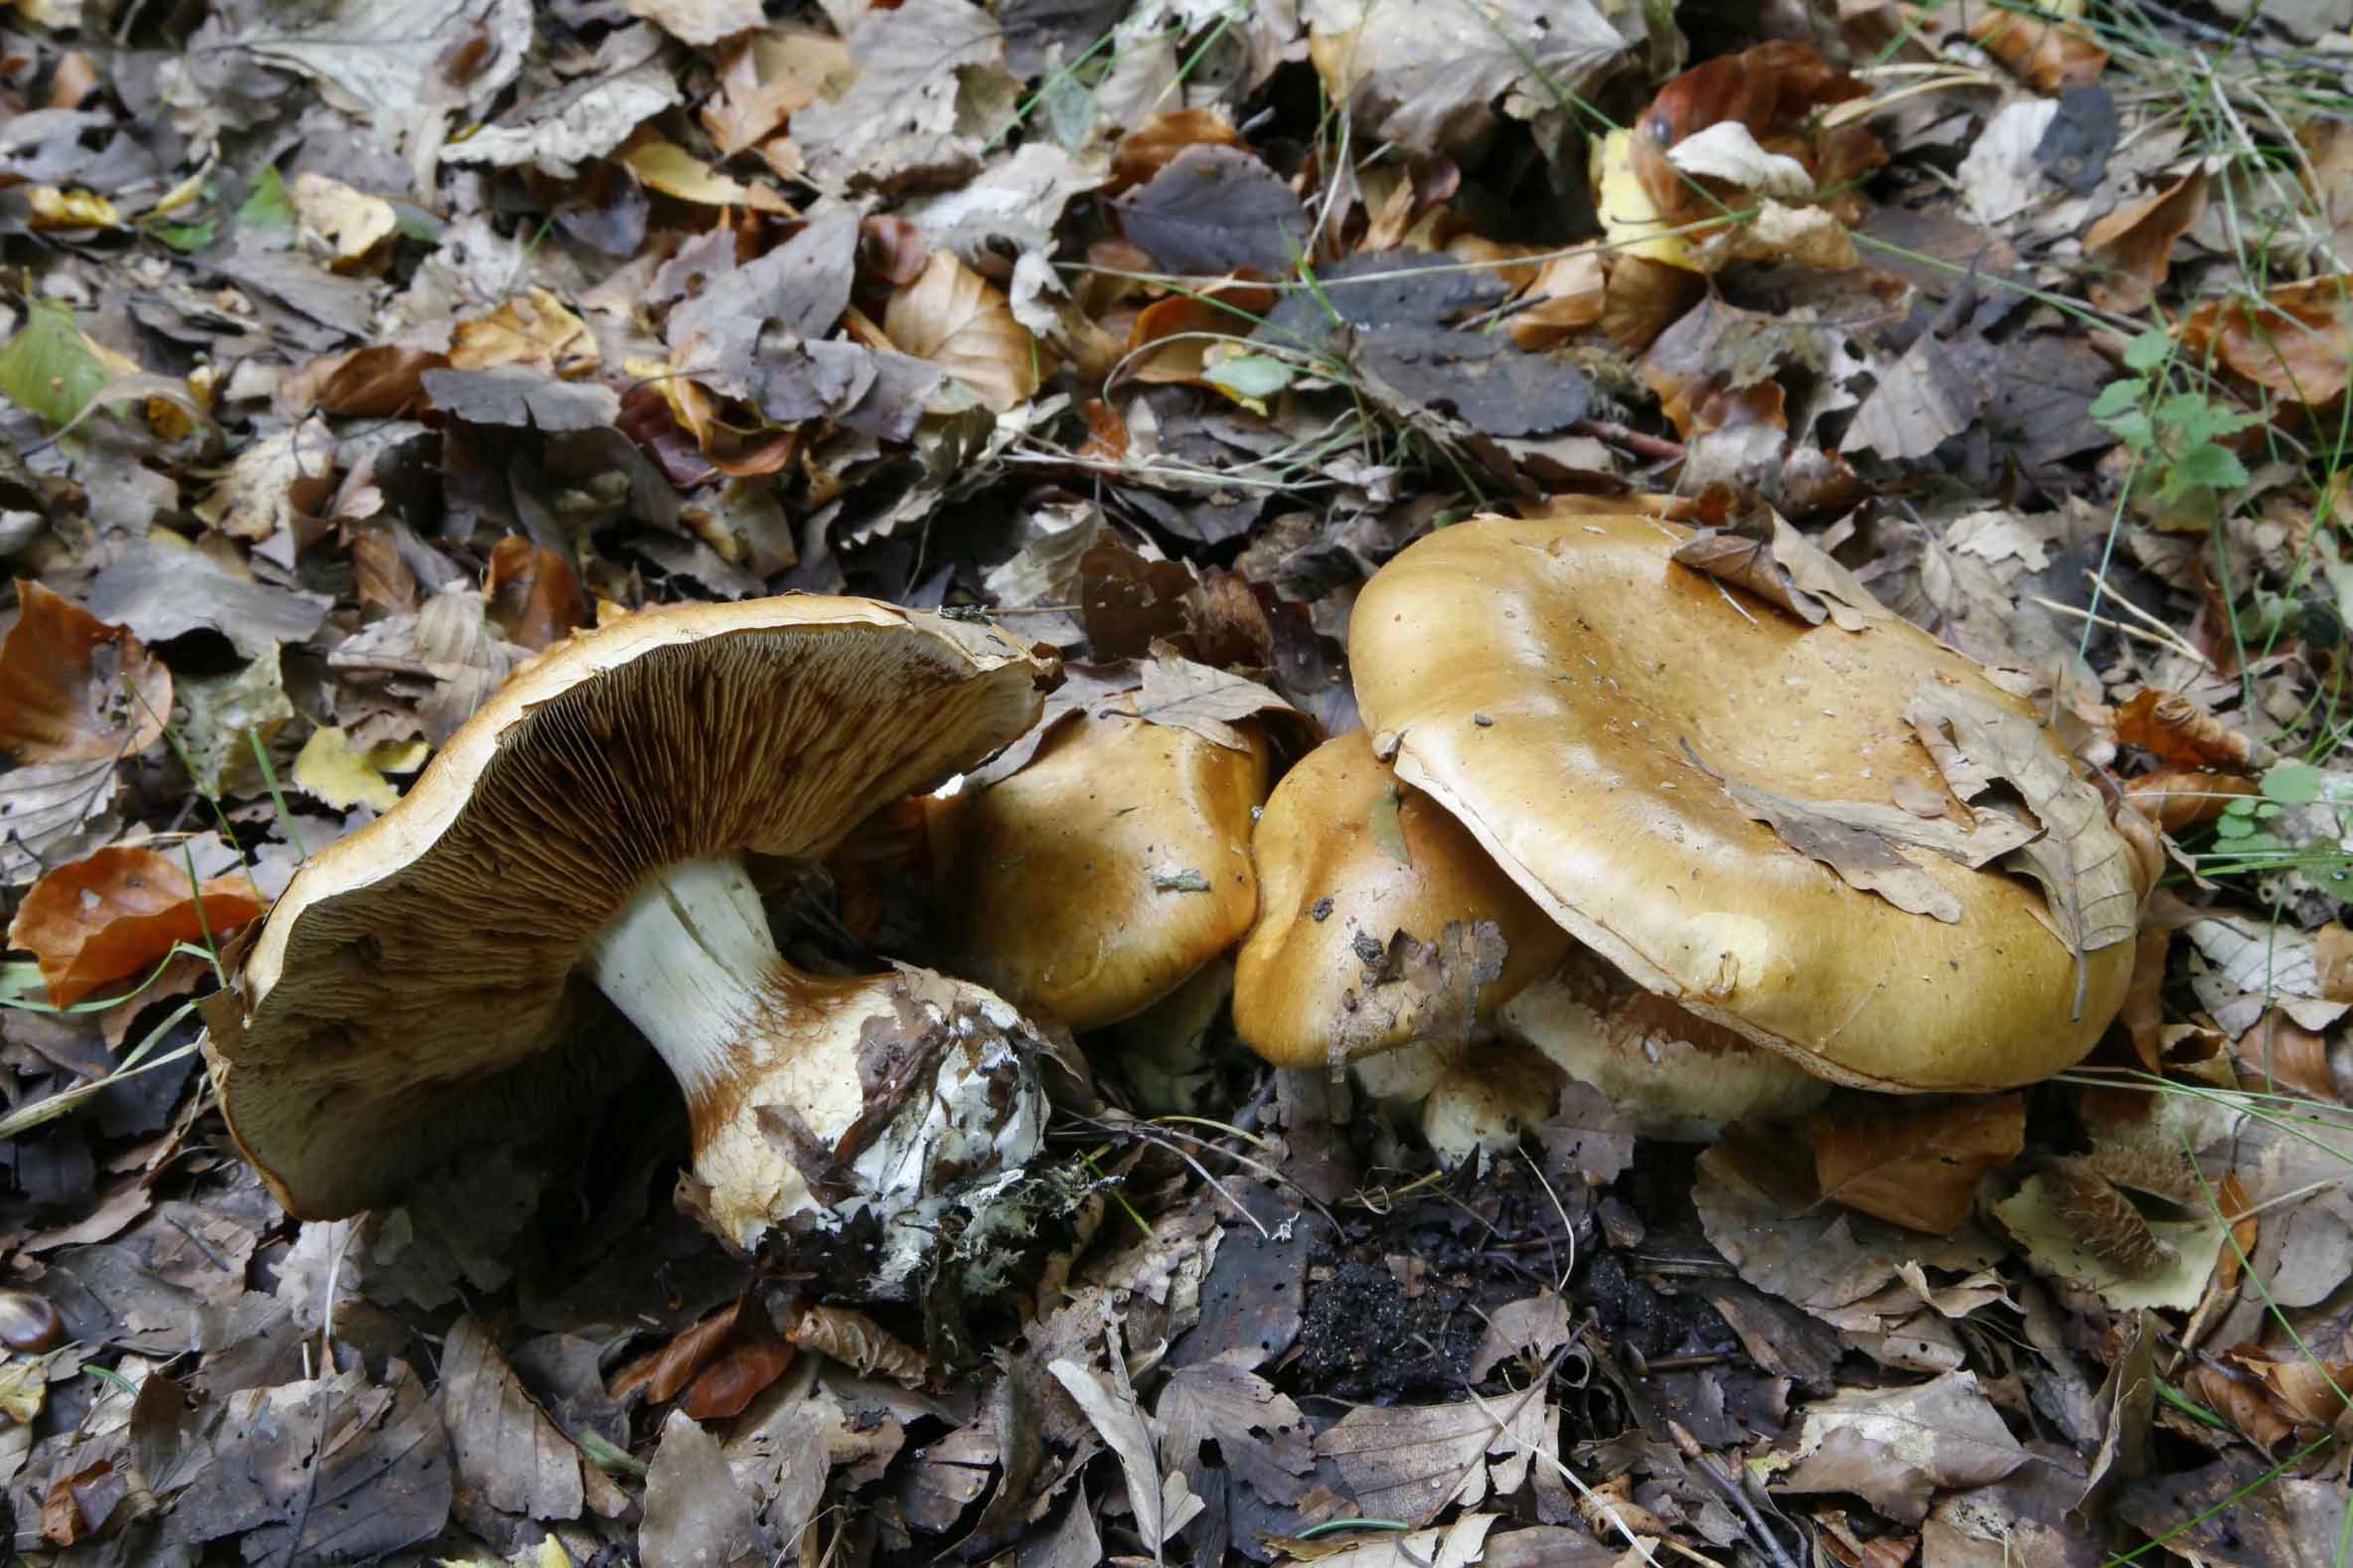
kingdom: Fungi
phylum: Basidiomycota
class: Agaricomycetes
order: Agaricales
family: Cortinariaceae
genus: Cortinarius
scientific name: Cortinarius anserinus
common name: bøge-slørhat
